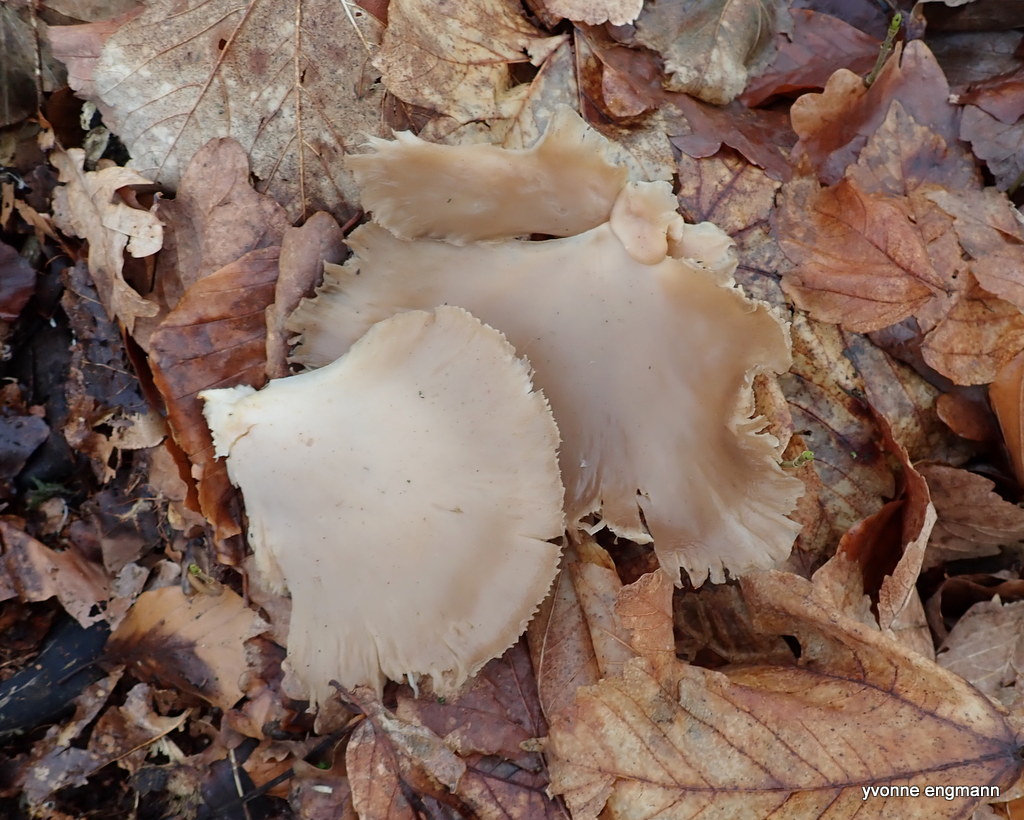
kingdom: Fungi
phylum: Basidiomycota
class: Agaricomycetes
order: Agaricales
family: Pleurotaceae
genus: Pleurotus
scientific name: Pleurotus ostreatus
